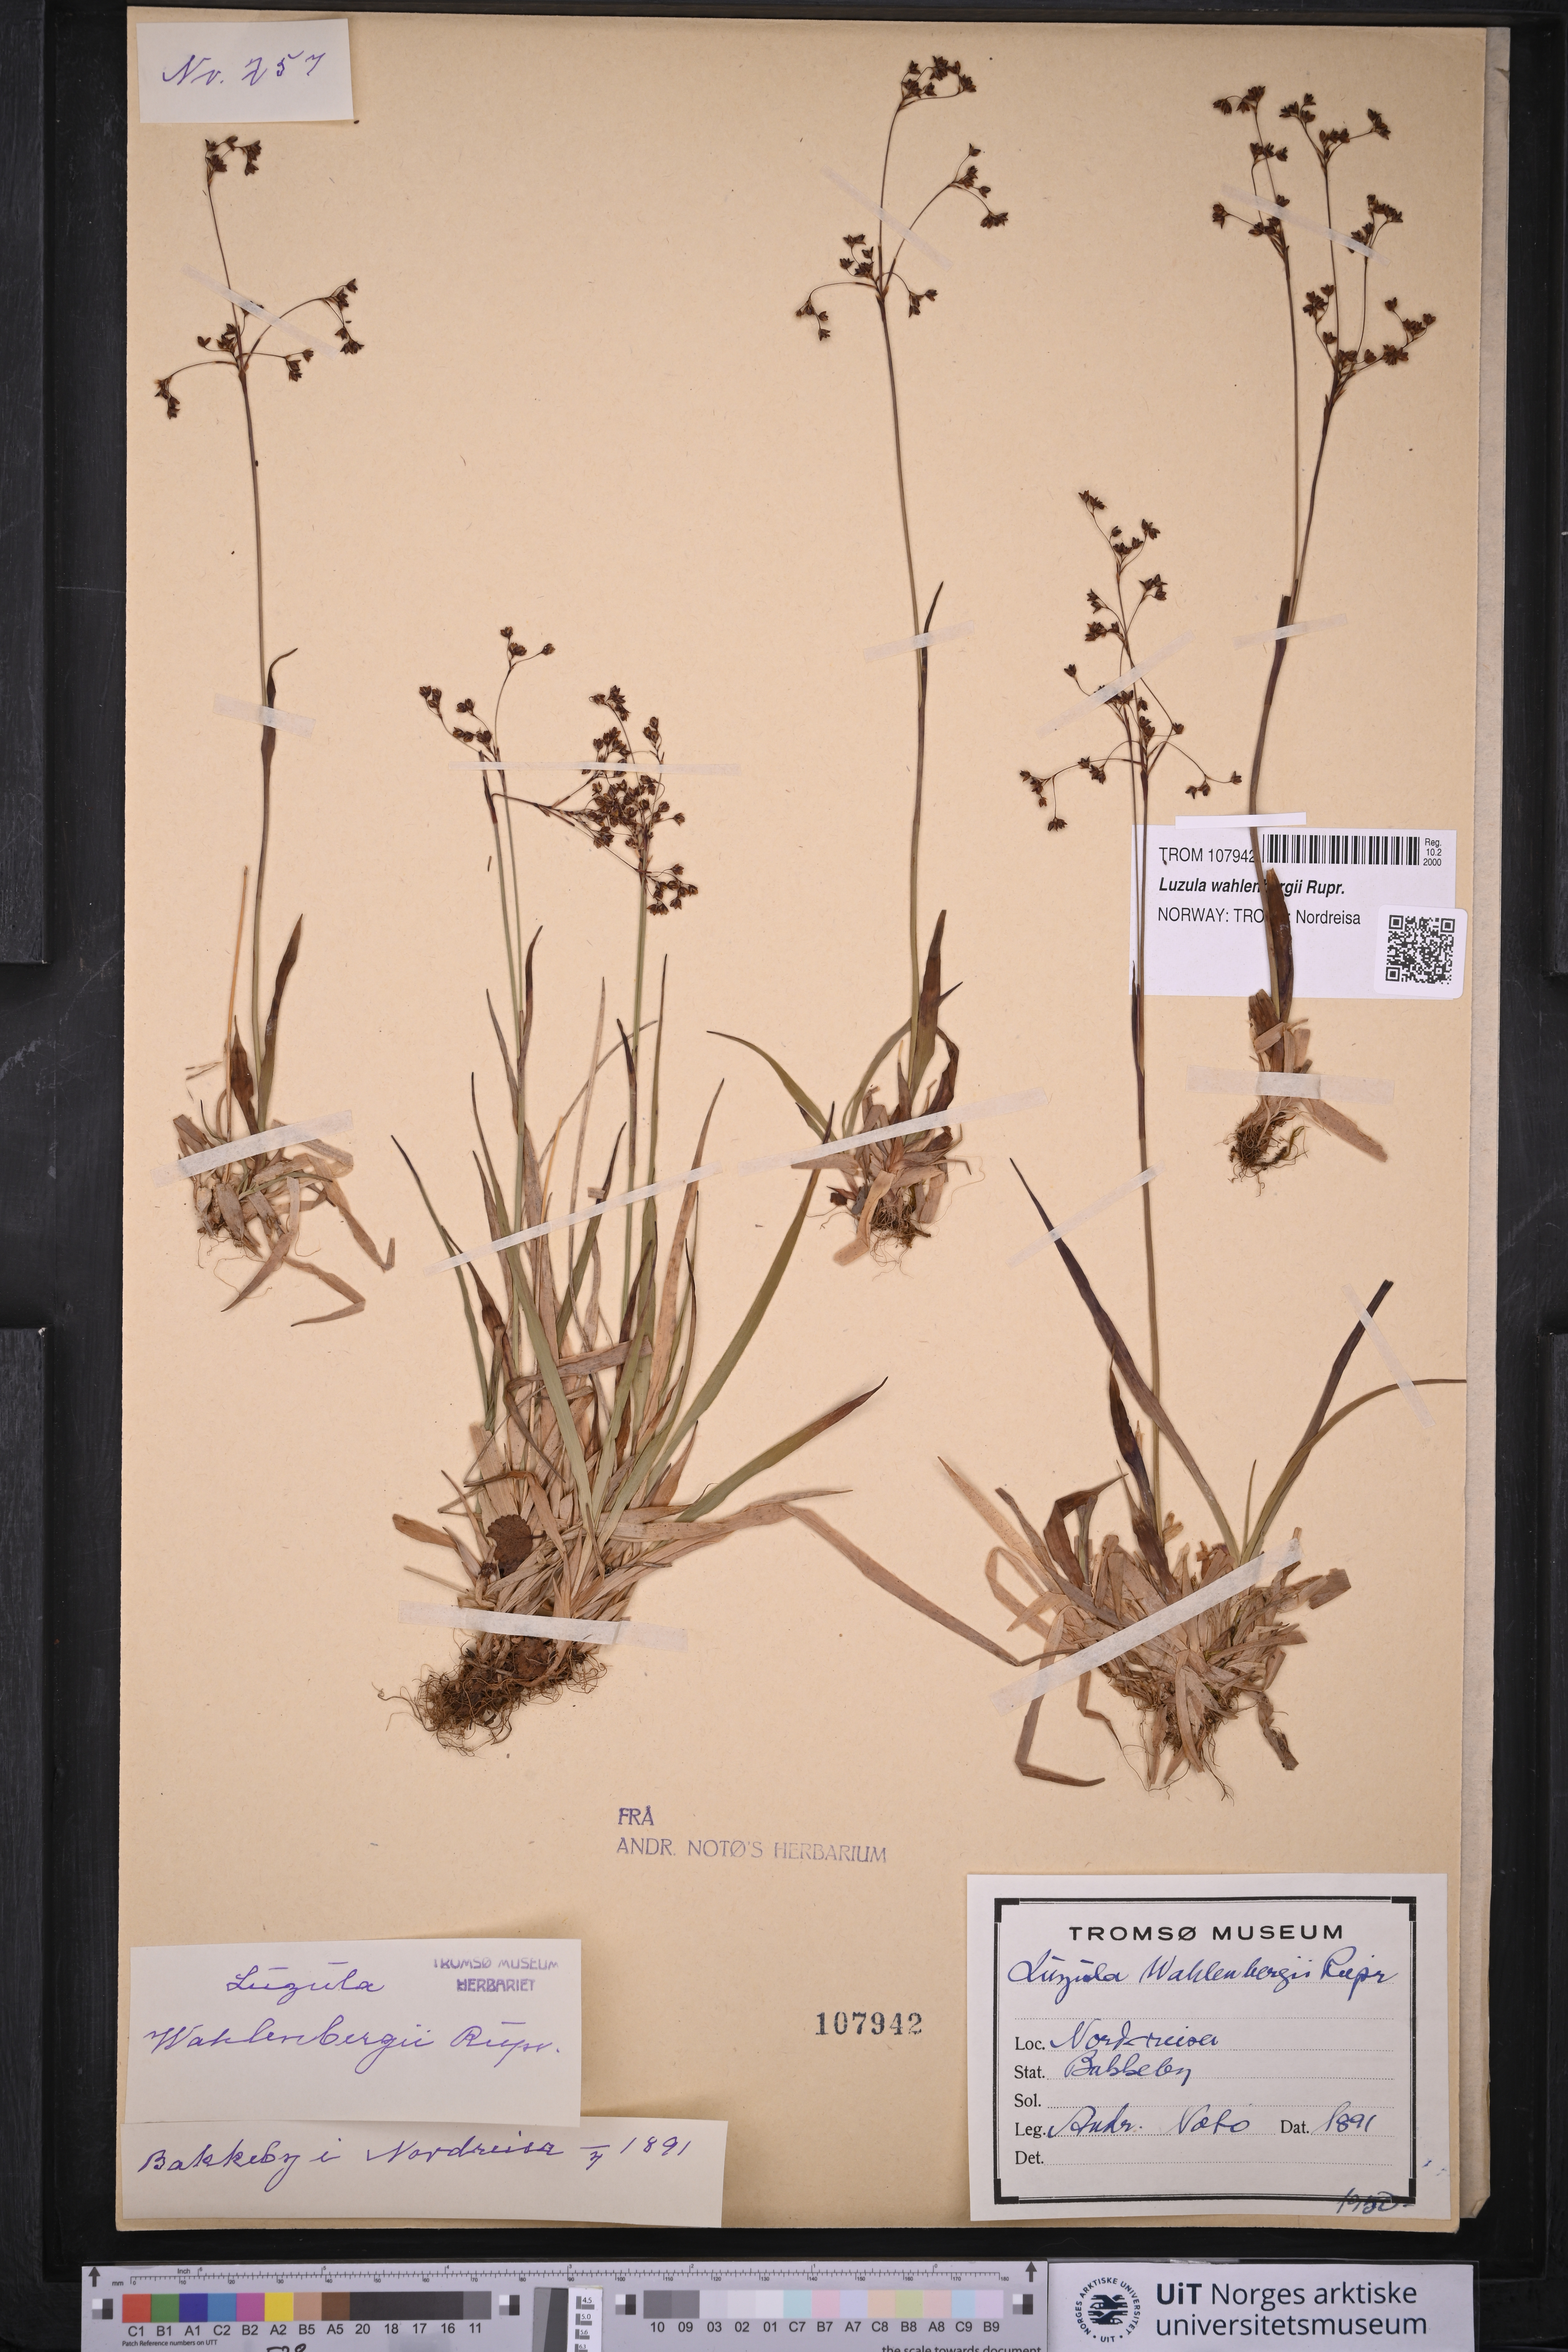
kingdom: Plantae
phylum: Tracheophyta
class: Liliopsida
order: Poales
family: Juncaceae
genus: Luzula
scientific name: Luzula wahlenbergii
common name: Wahlenberg's wood-rush
